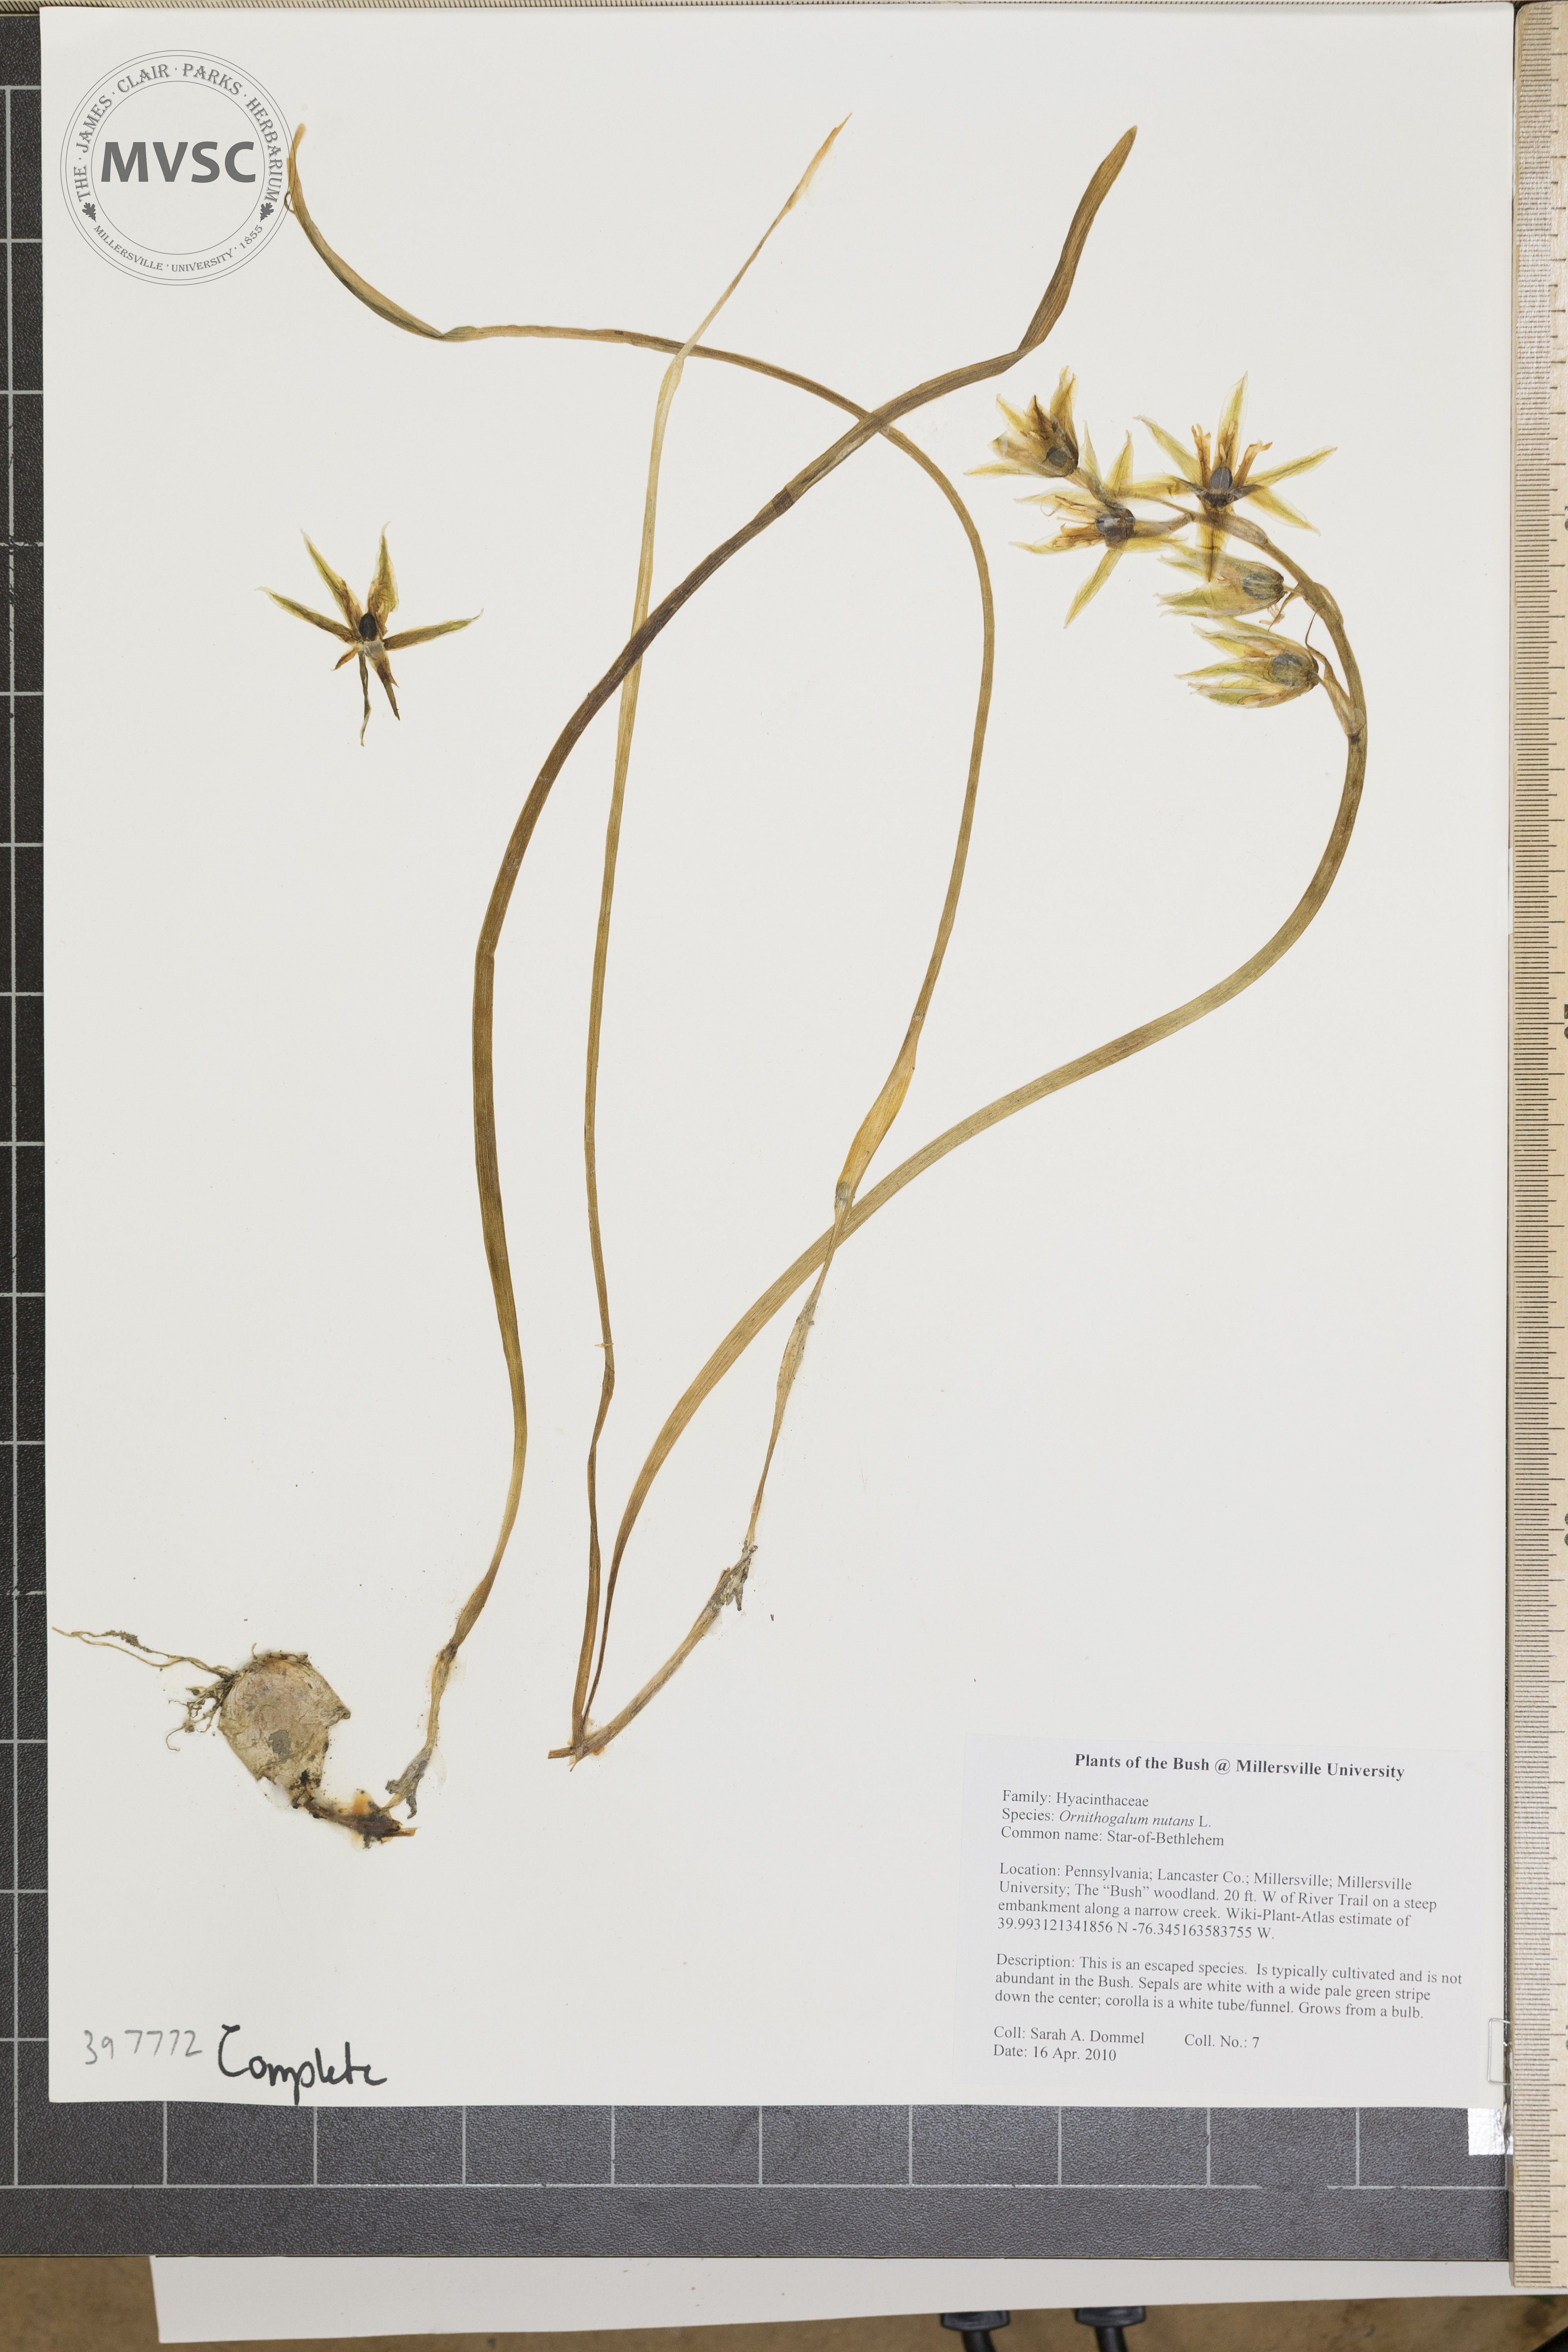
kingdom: Plantae
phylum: Tracheophyta
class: Liliopsida
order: Asparagales
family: Asparagaceae
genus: Ornithogalum
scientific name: Ornithogalum nutans
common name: Star-of-Bethlehem
